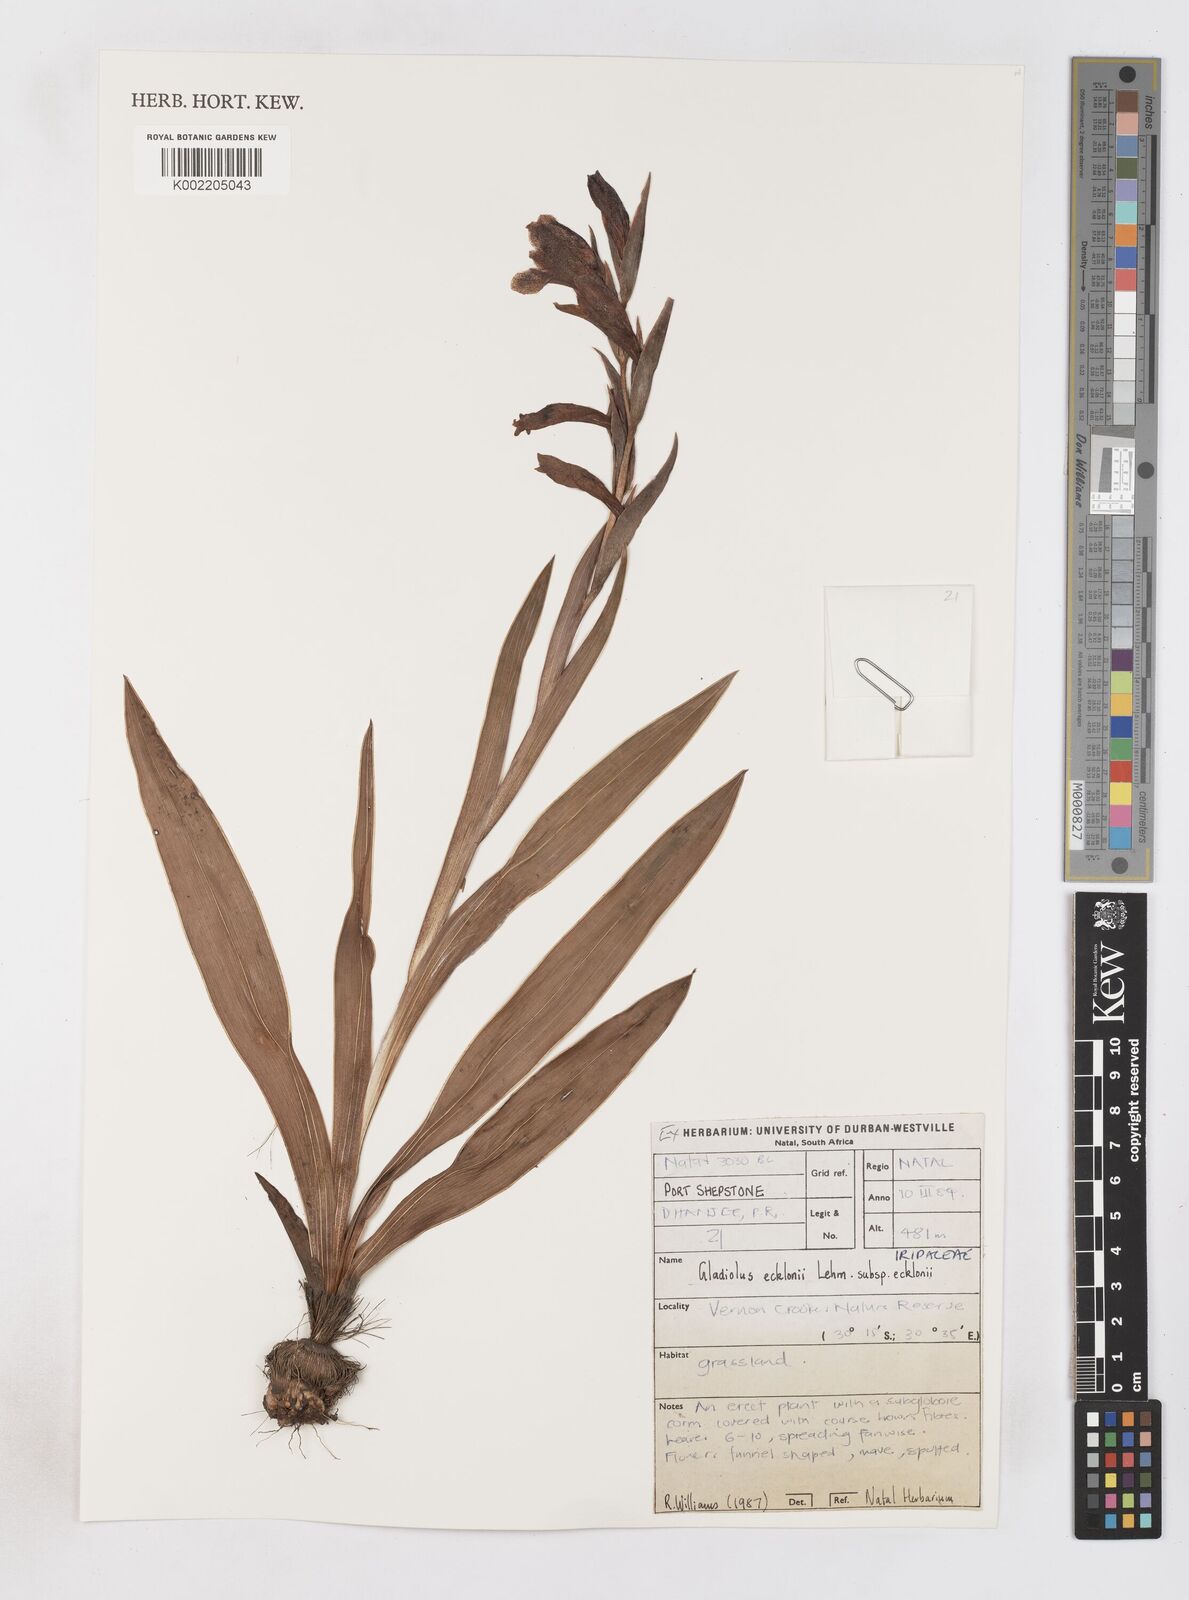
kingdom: Plantae
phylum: Tracheophyta
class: Liliopsida
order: Asparagales
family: Iridaceae
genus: Gladiolus
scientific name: Gladiolus ecklonii
